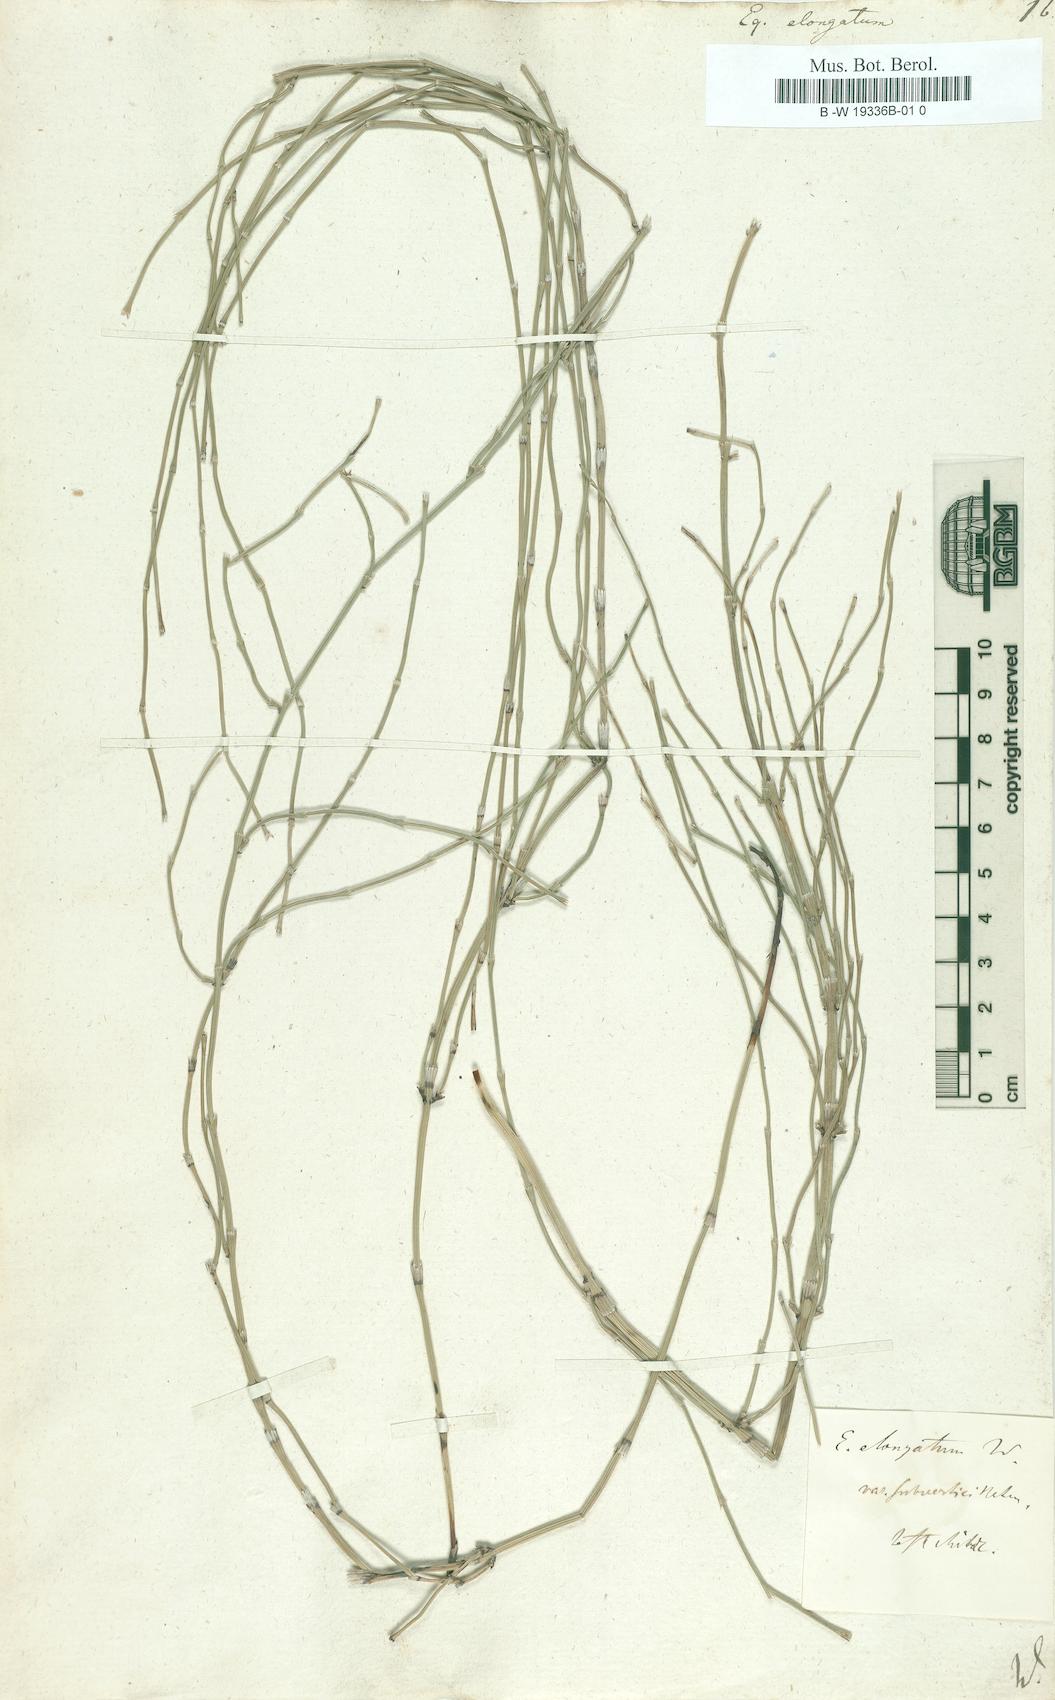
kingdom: Plantae
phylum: Tracheophyta
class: Polypodiopsida
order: Equisetales
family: Equisetaceae
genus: Equisetum
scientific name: Equisetum ramosissimum
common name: Branched horsetail
